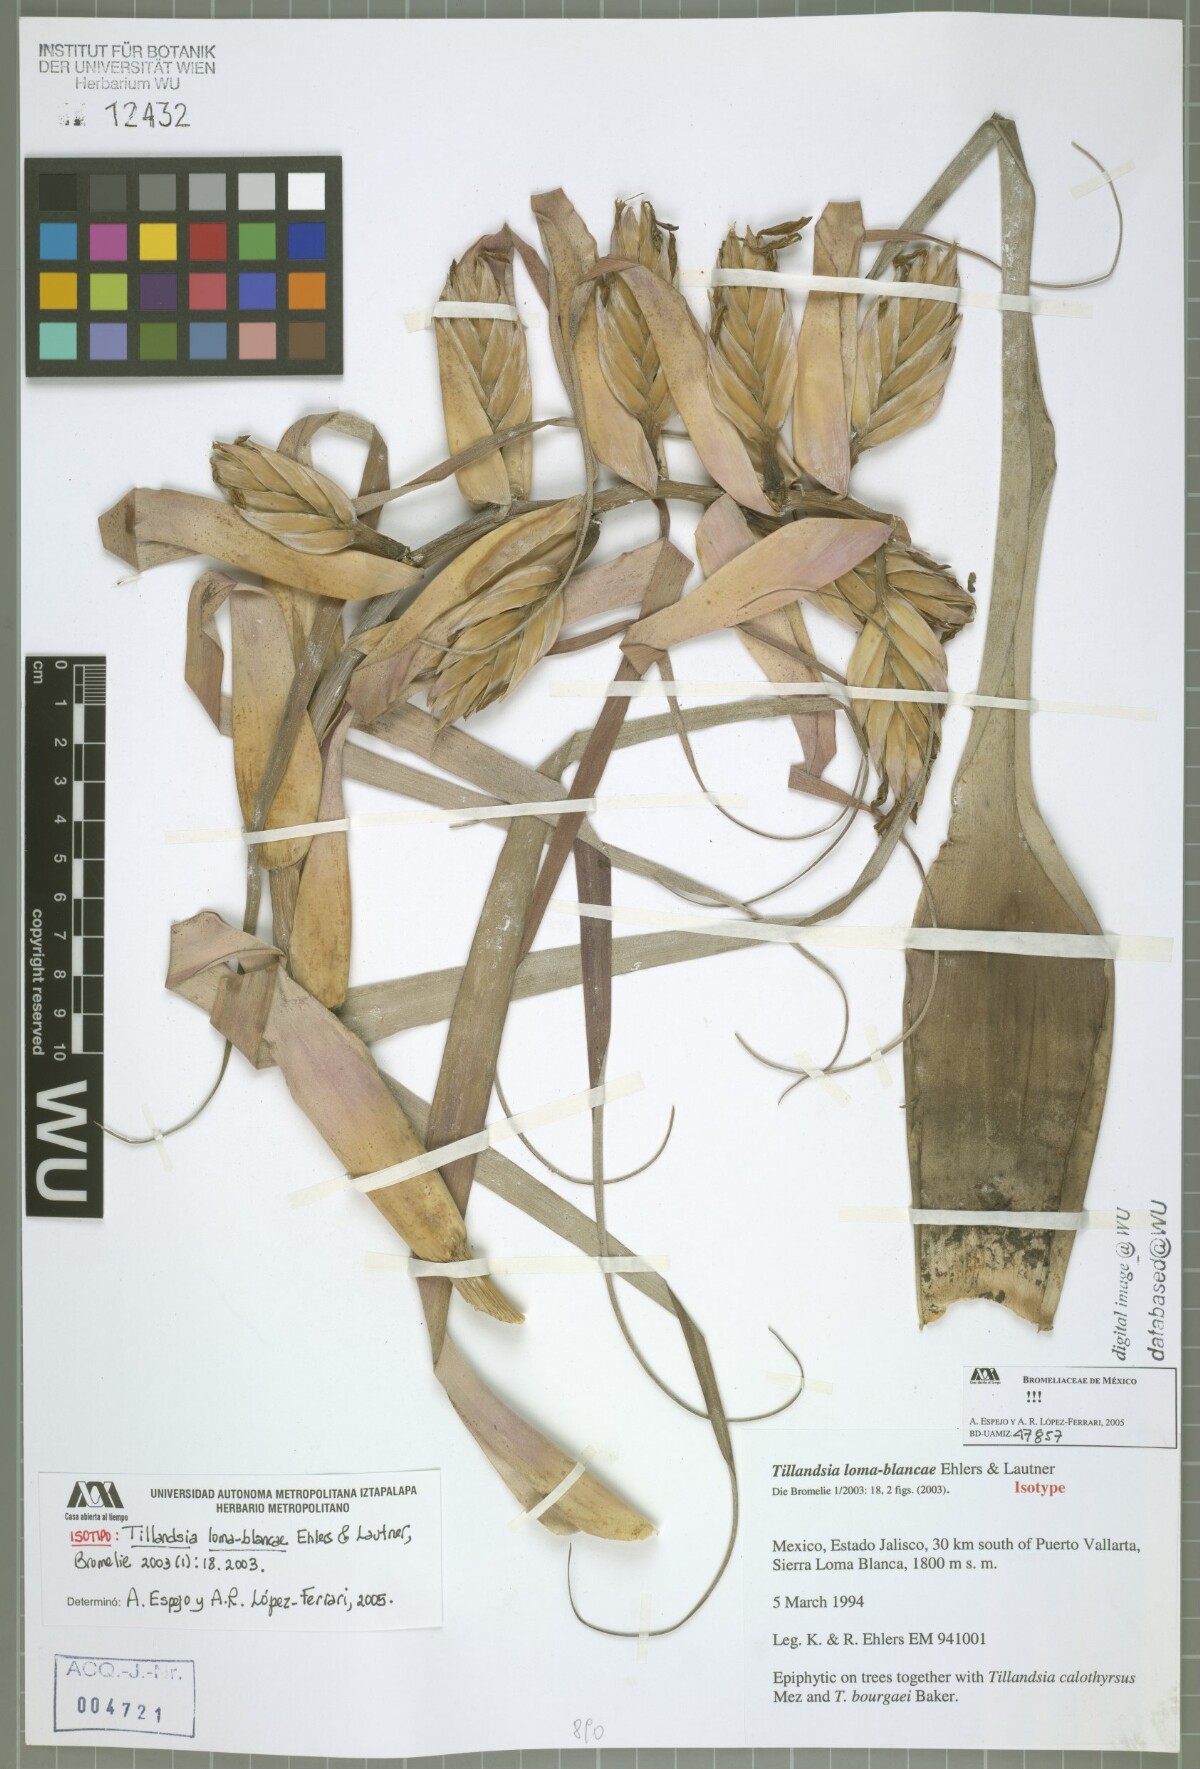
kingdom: Plantae
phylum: Tracheophyta
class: Liliopsida
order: Poales
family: Bromeliaceae
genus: Tillandsia
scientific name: Tillandsia loma-blancae
